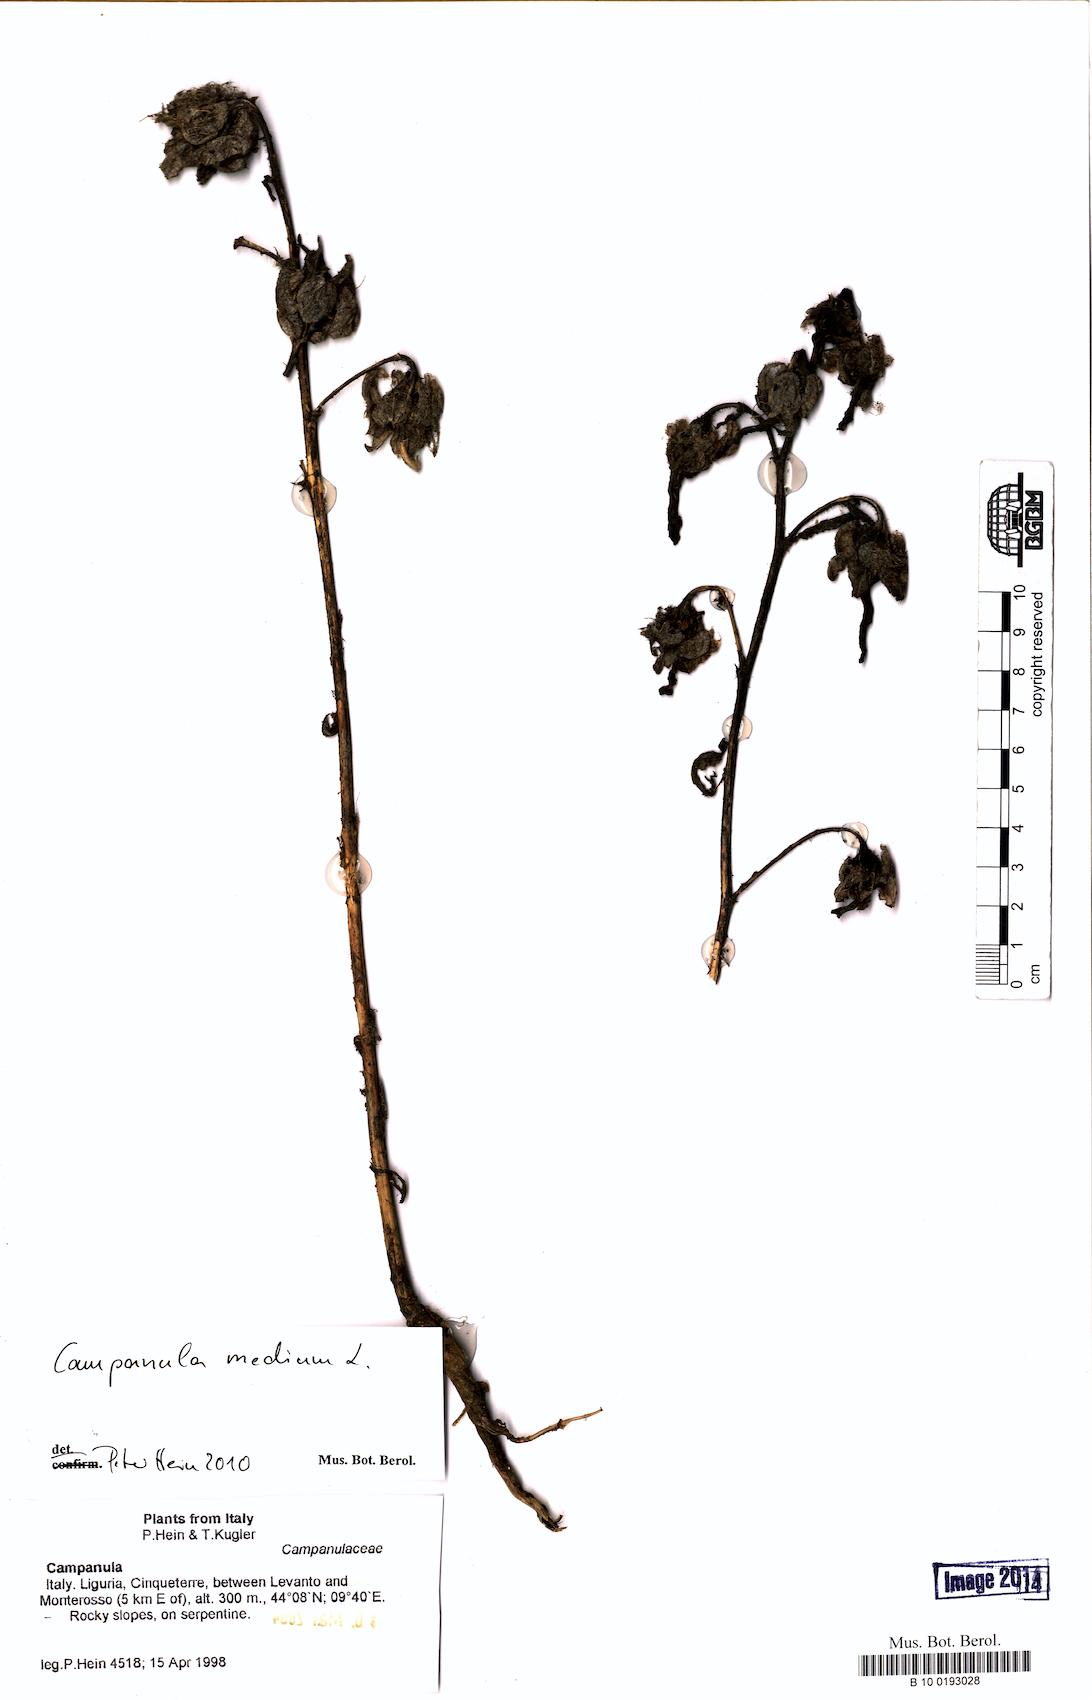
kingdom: Plantae
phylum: Tracheophyta
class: Magnoliopsida
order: Asterales
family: Campanulaceae
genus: Campanula
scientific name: Campanula medium
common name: Canterbury bells
